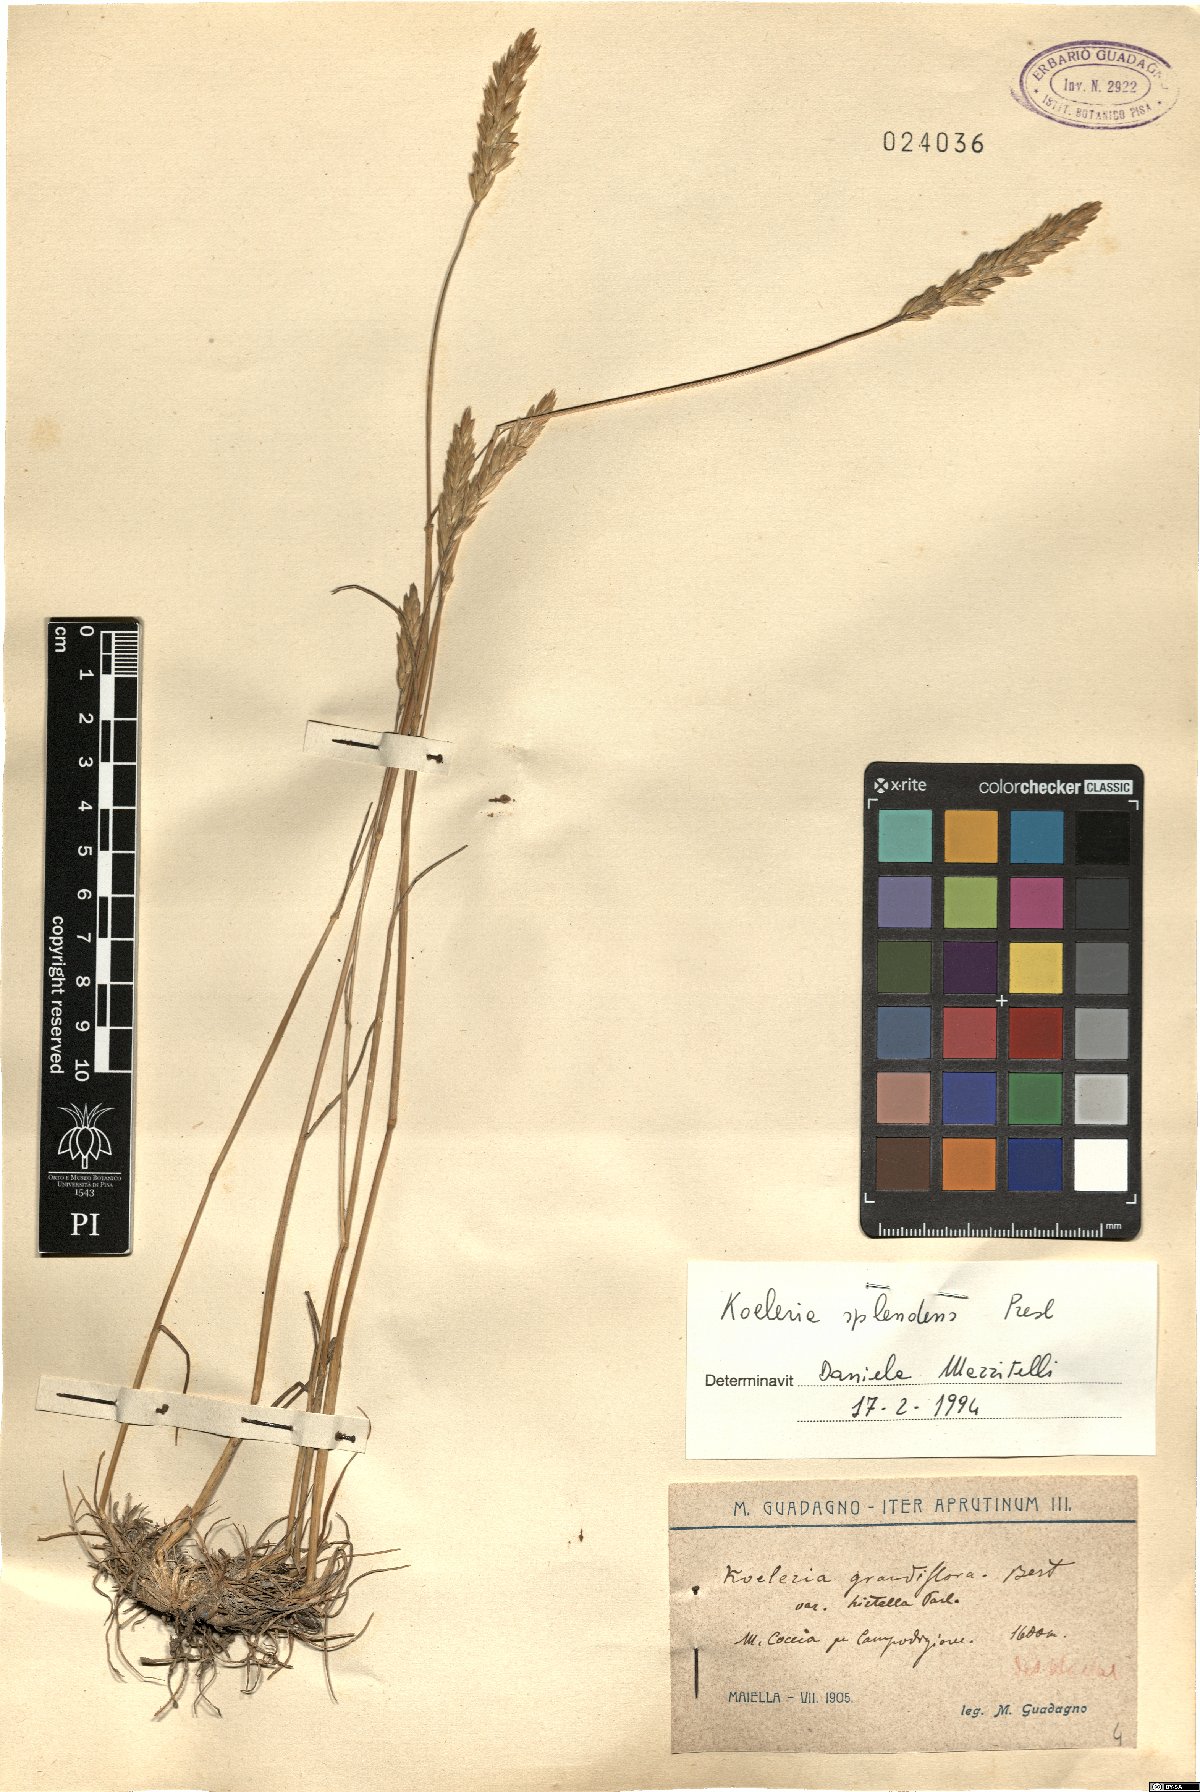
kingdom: Plantae
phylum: Tracheophyta
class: Liliopsida
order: Poales
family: Poaceae
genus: Koeleria
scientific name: Koeleria splendens
